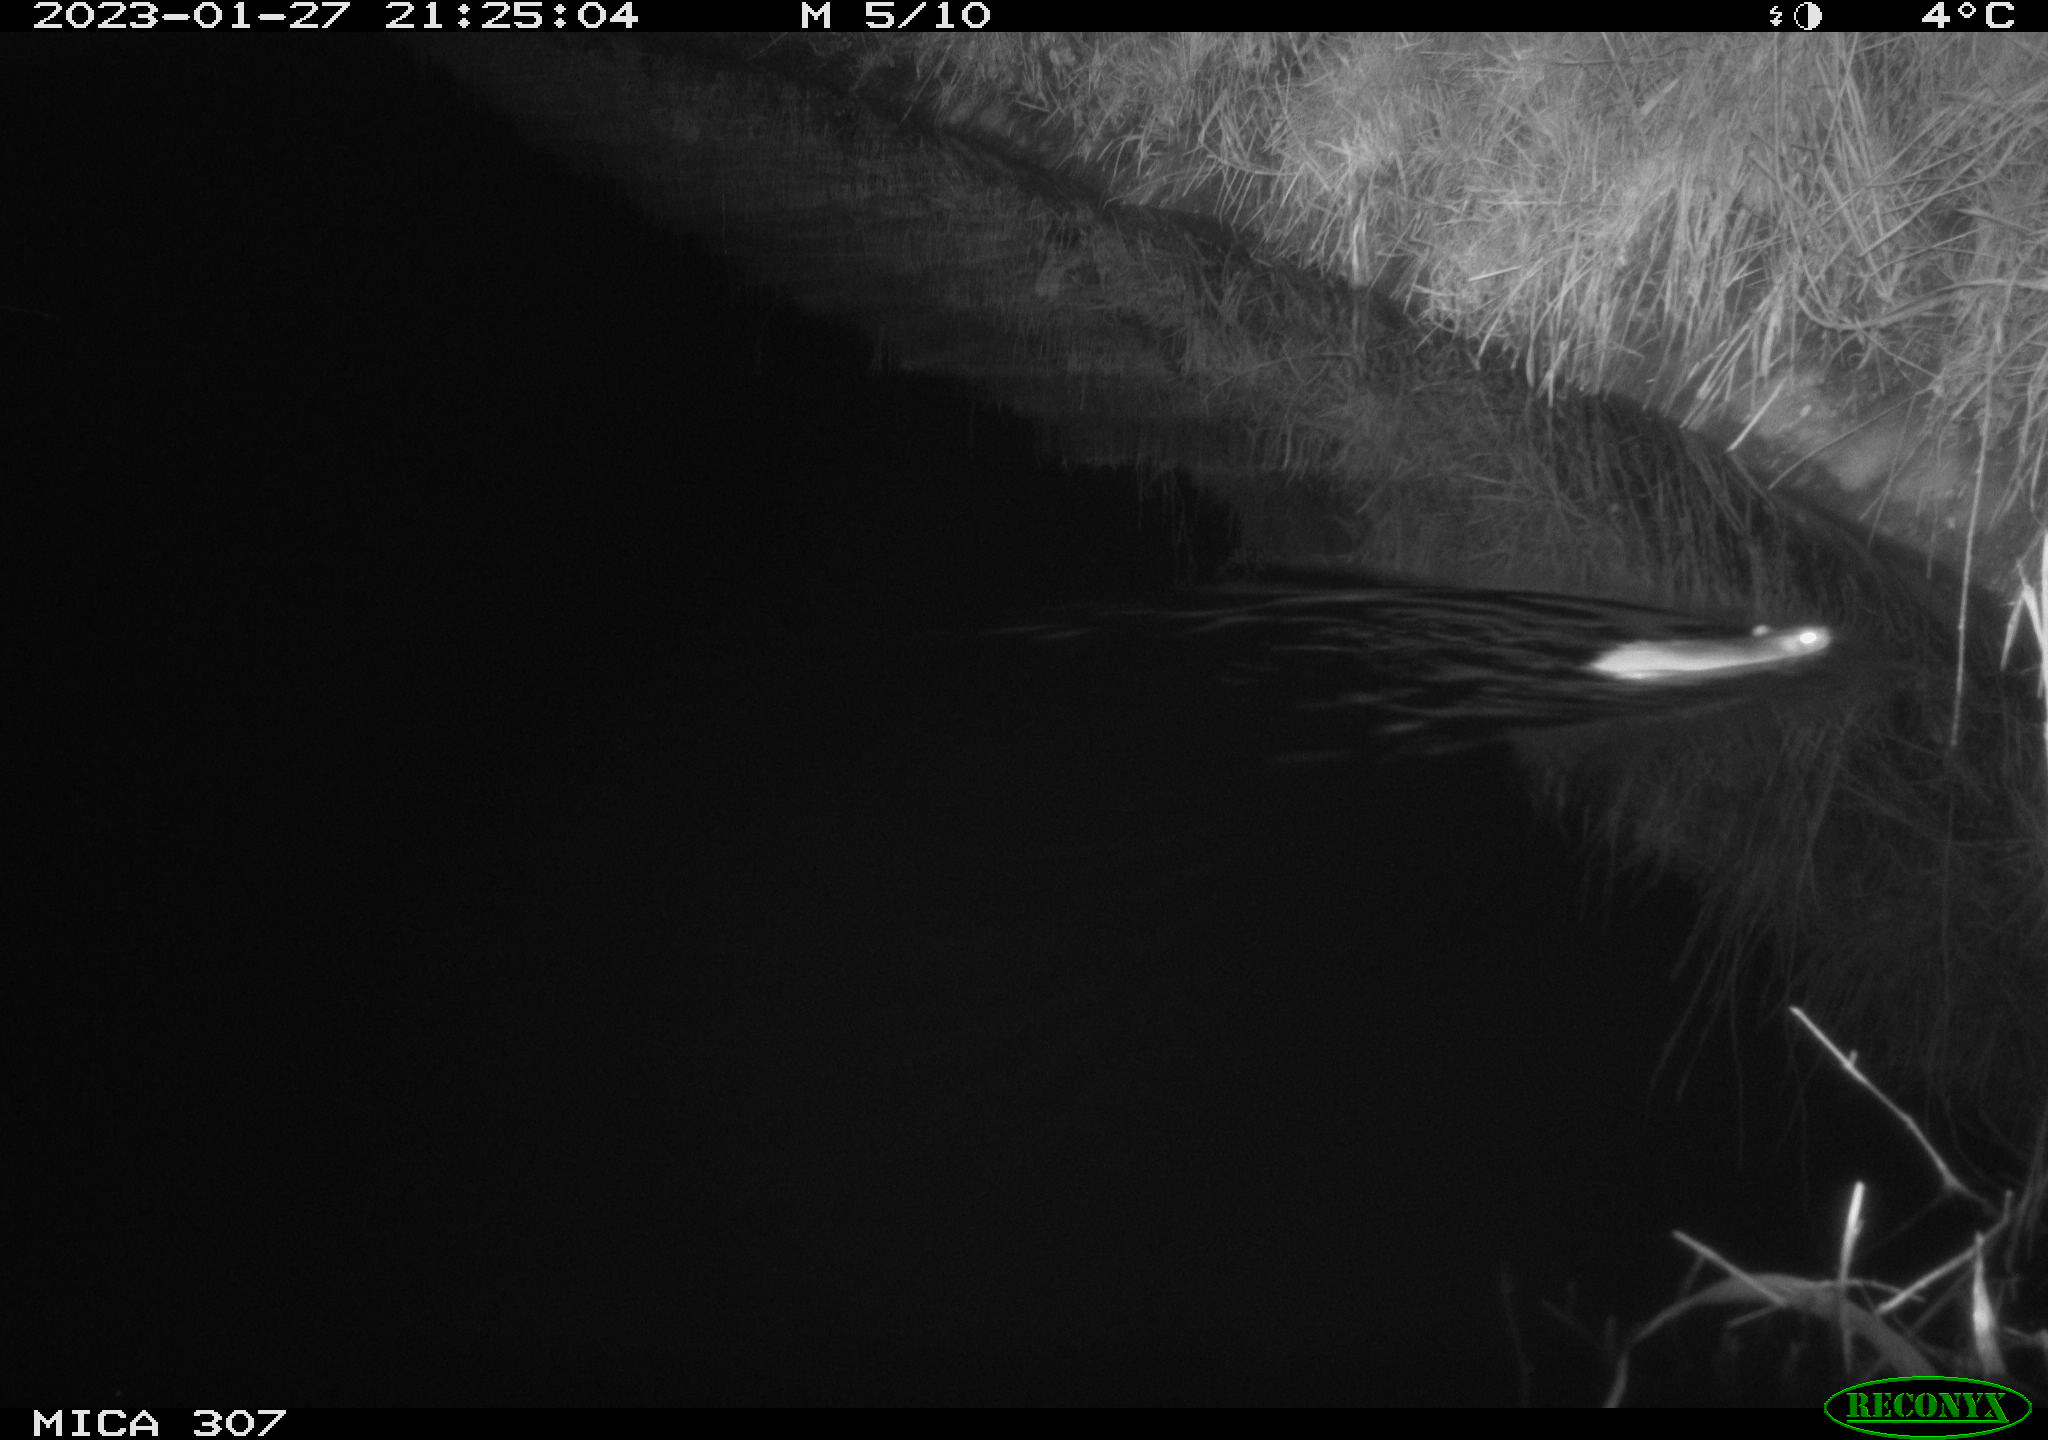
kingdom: Animalia
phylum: Chordata
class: Mammalia
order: Rodentia
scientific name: Rodentia
